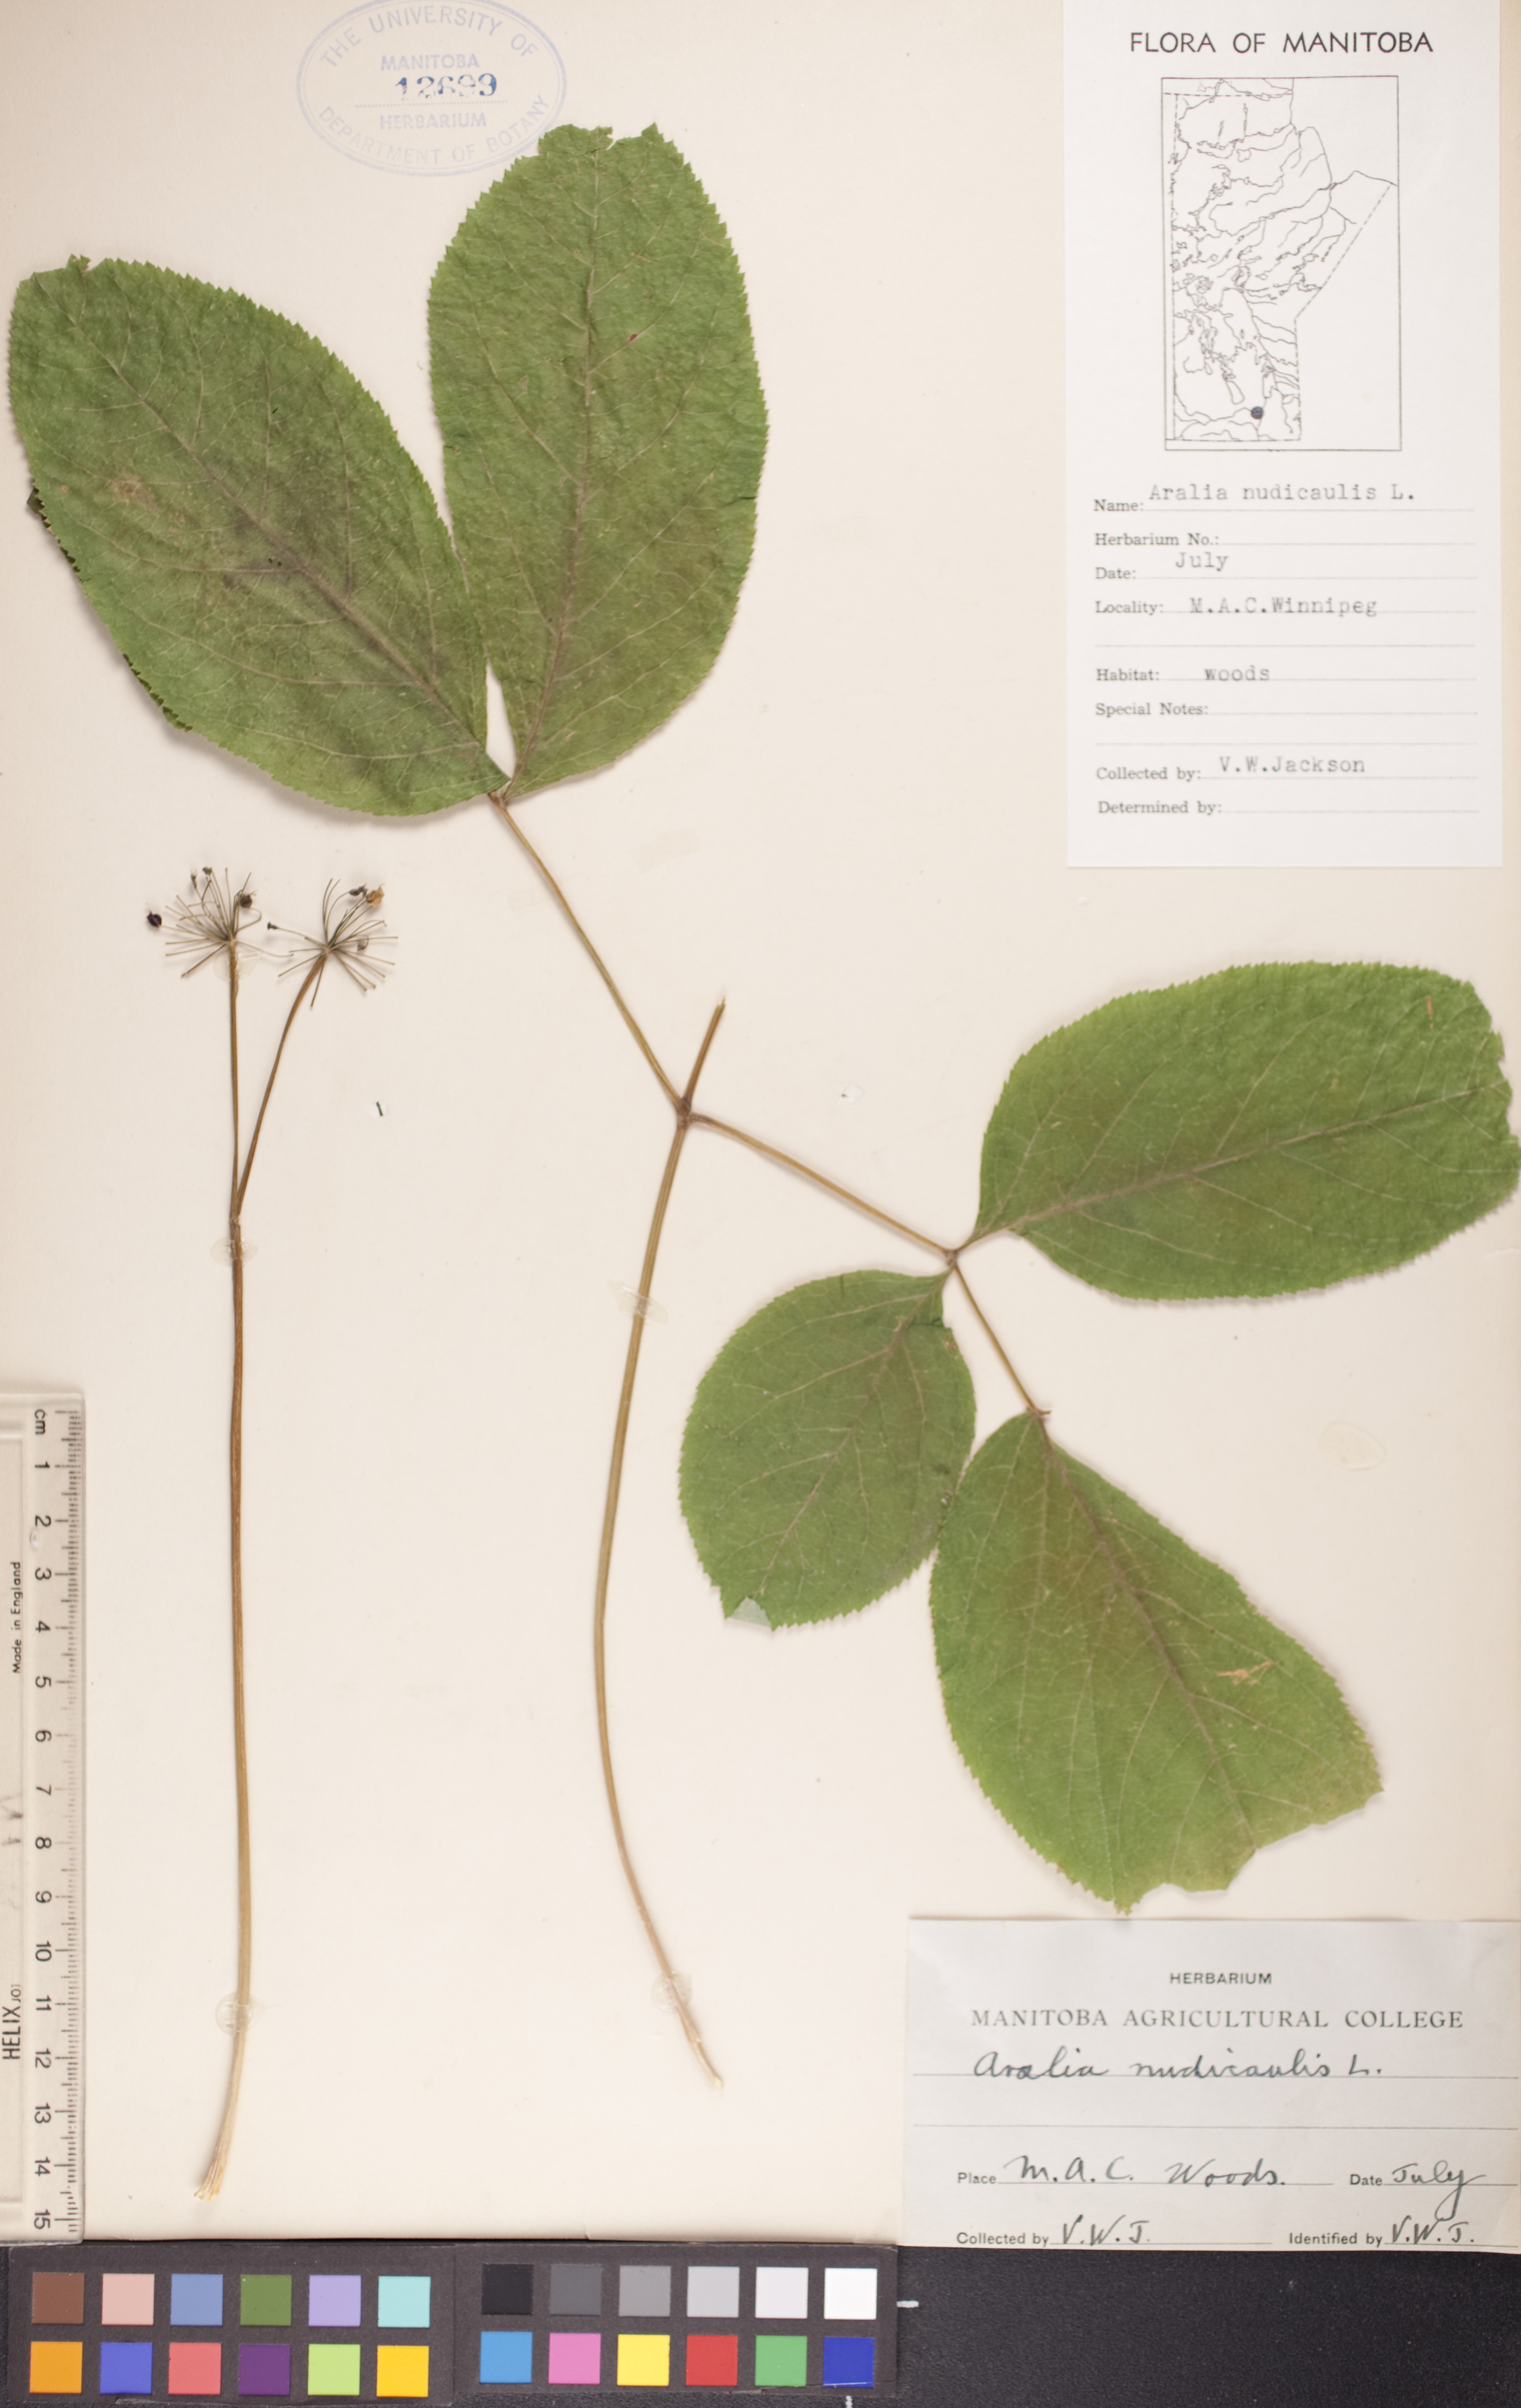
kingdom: Plantae
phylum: Tracheophyta
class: Magnoliopsida
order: Apiales
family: Araliaceae
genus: Aralia
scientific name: Aralia nudicaulis
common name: Wild sarsaparilla
